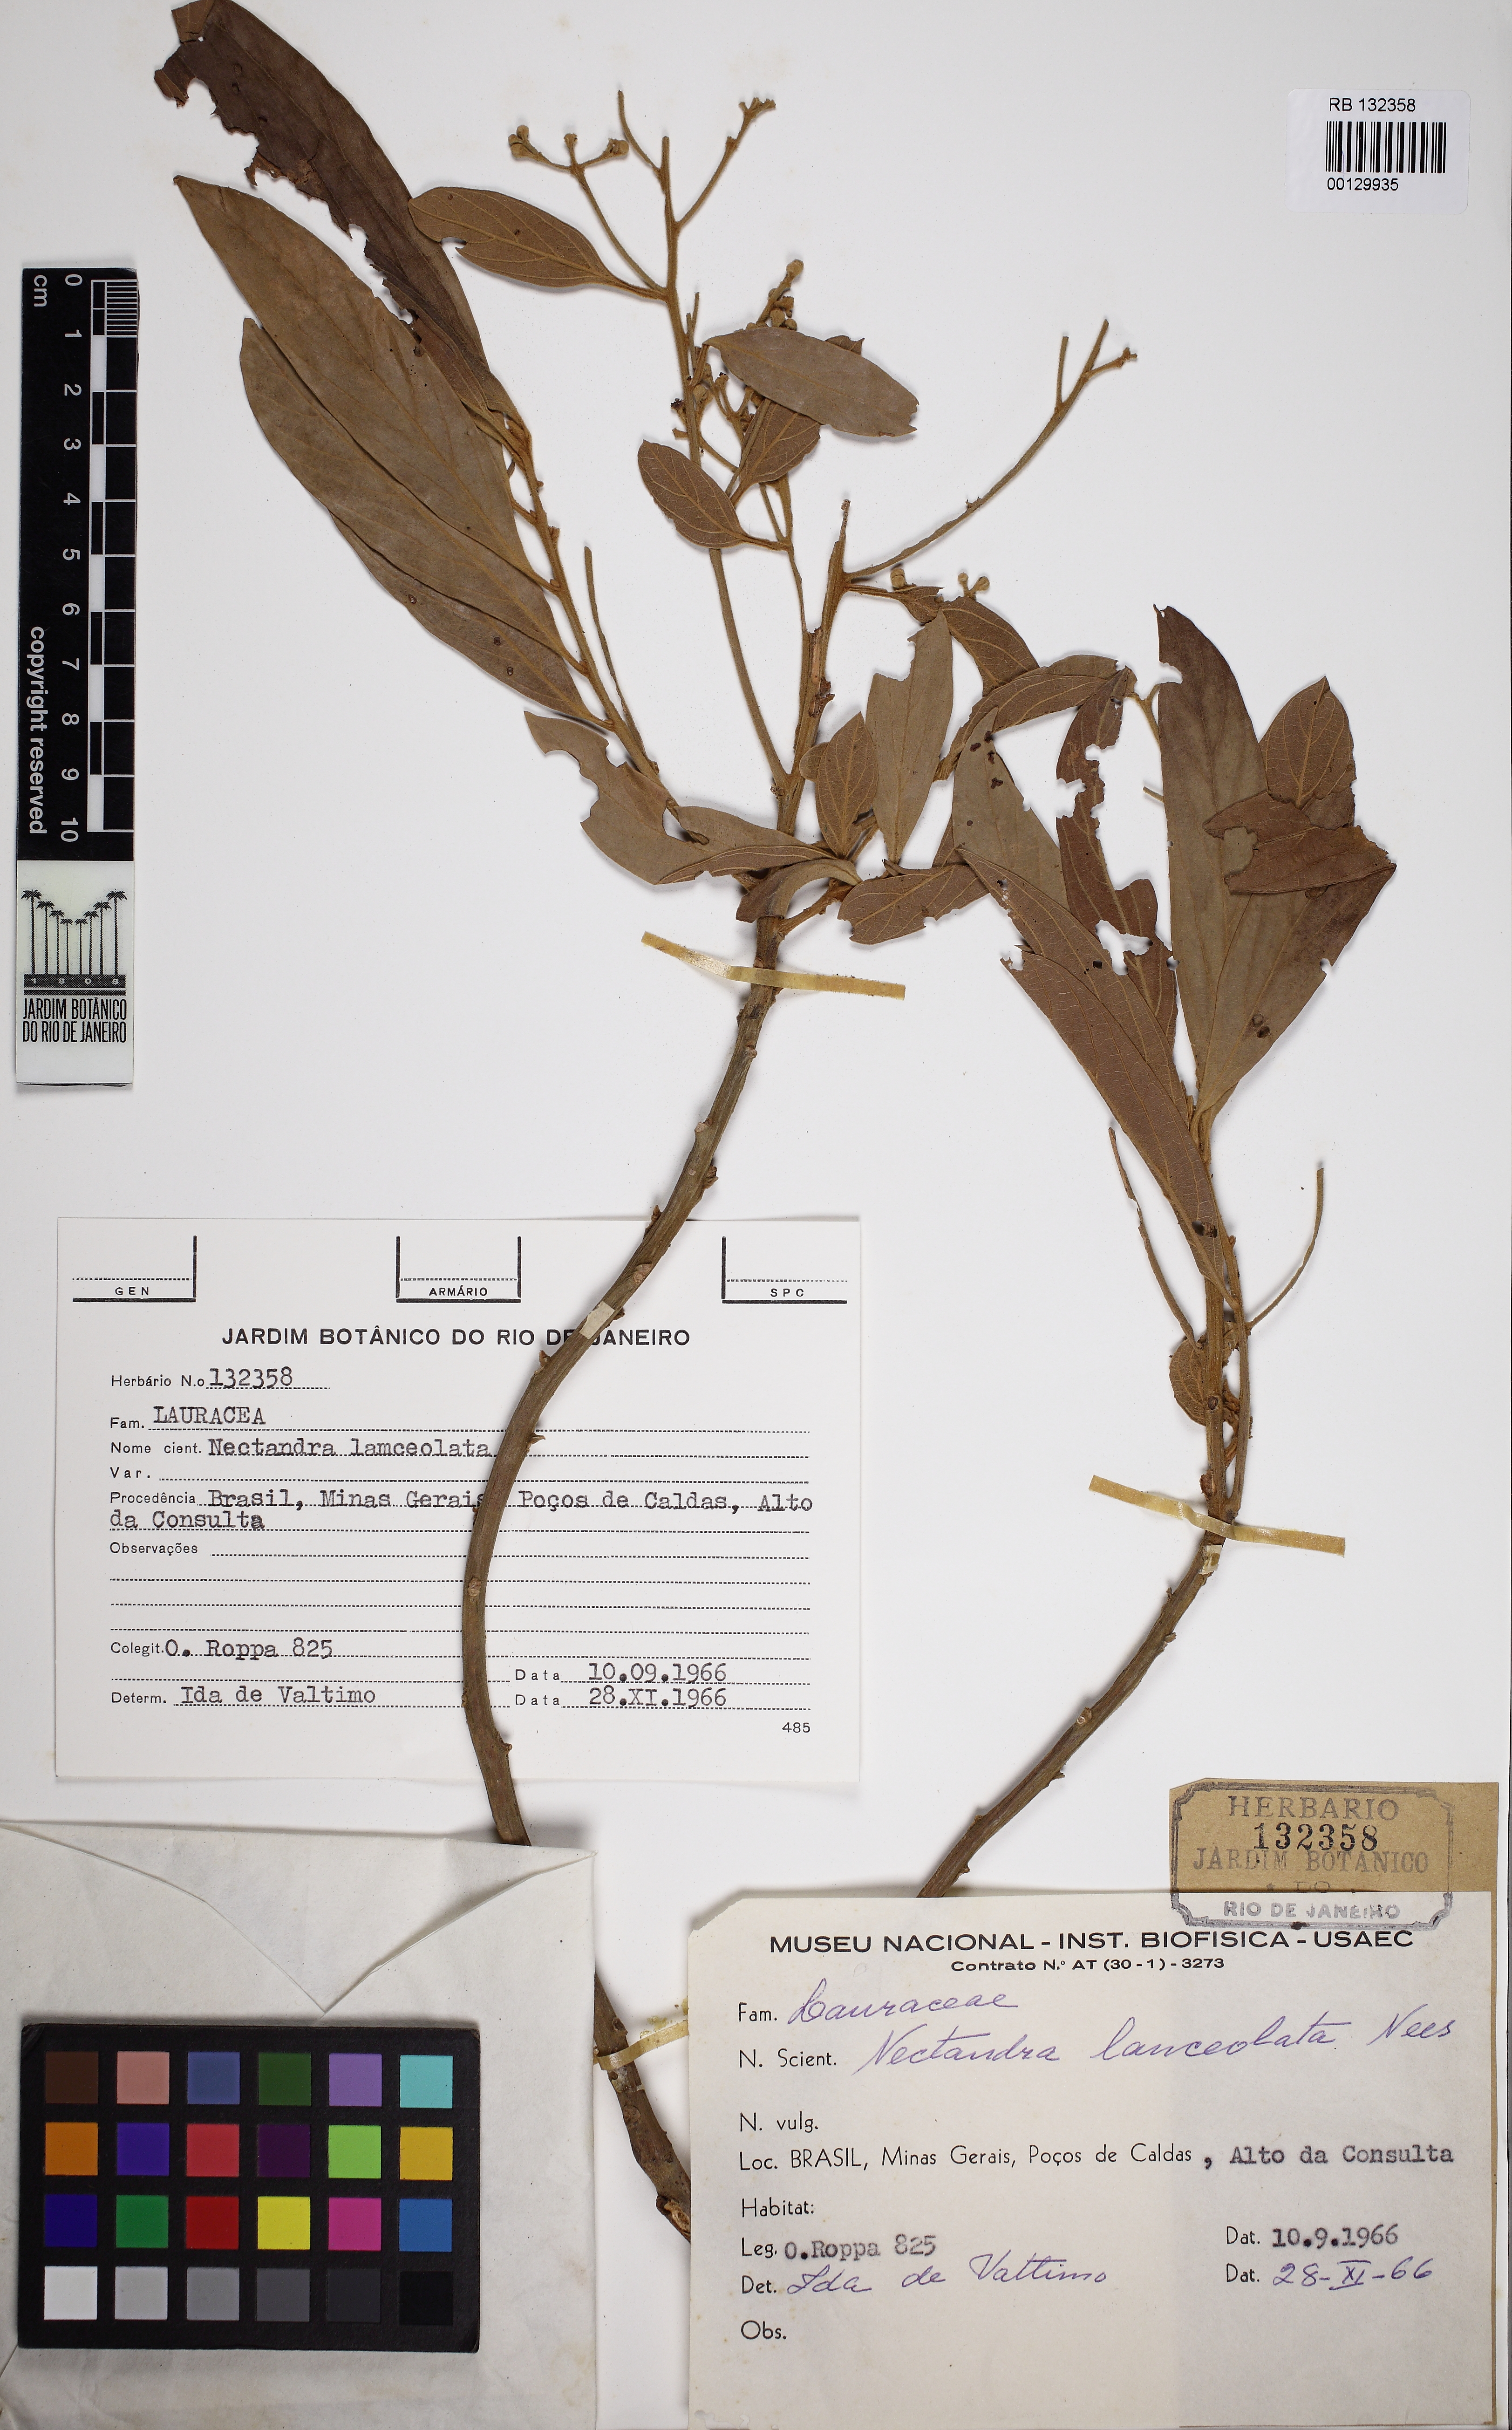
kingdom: Plantae
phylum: Tracheophyta
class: Magnoliopsida
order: Laurales
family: Lauraceae
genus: Nectandra
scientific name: Nectandra lanceolata
